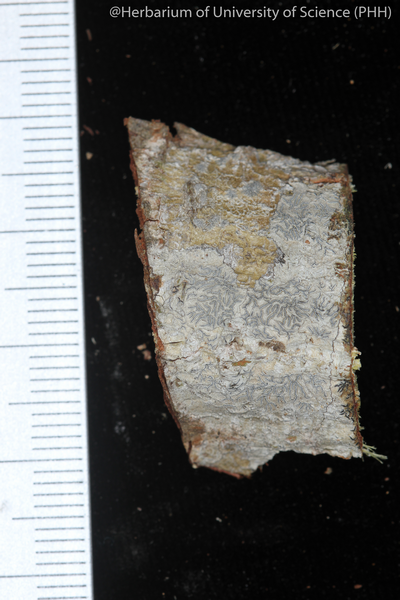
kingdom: Fungi
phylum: Ascomycota
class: Lecanoromycetes
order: Ostropales
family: Graphidaceae
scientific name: Graphidaceae
